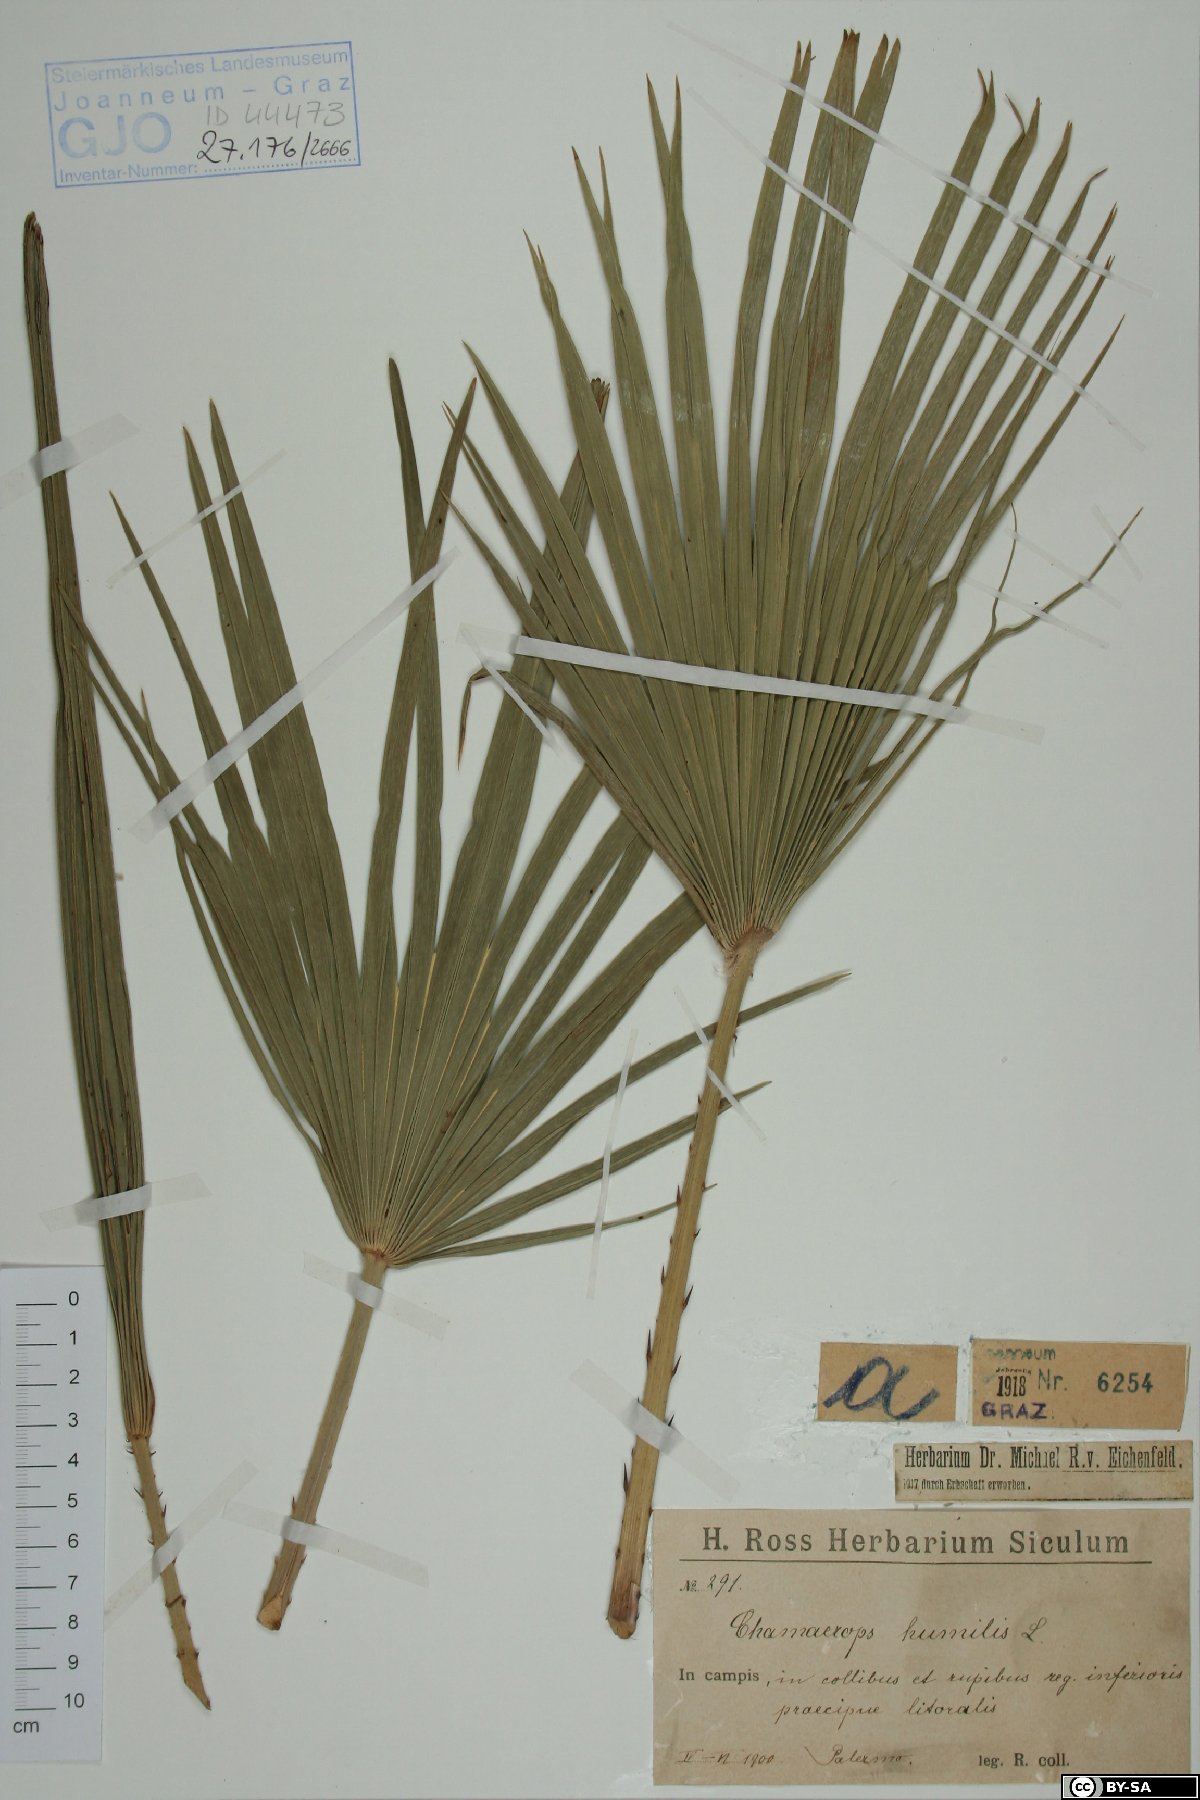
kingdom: Plantae
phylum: Tracheophyta
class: Liliopsida
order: Arecales
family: Arecaceae
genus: Chamaerops
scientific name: Chamaerops humilis
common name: Dwarf fan palm
